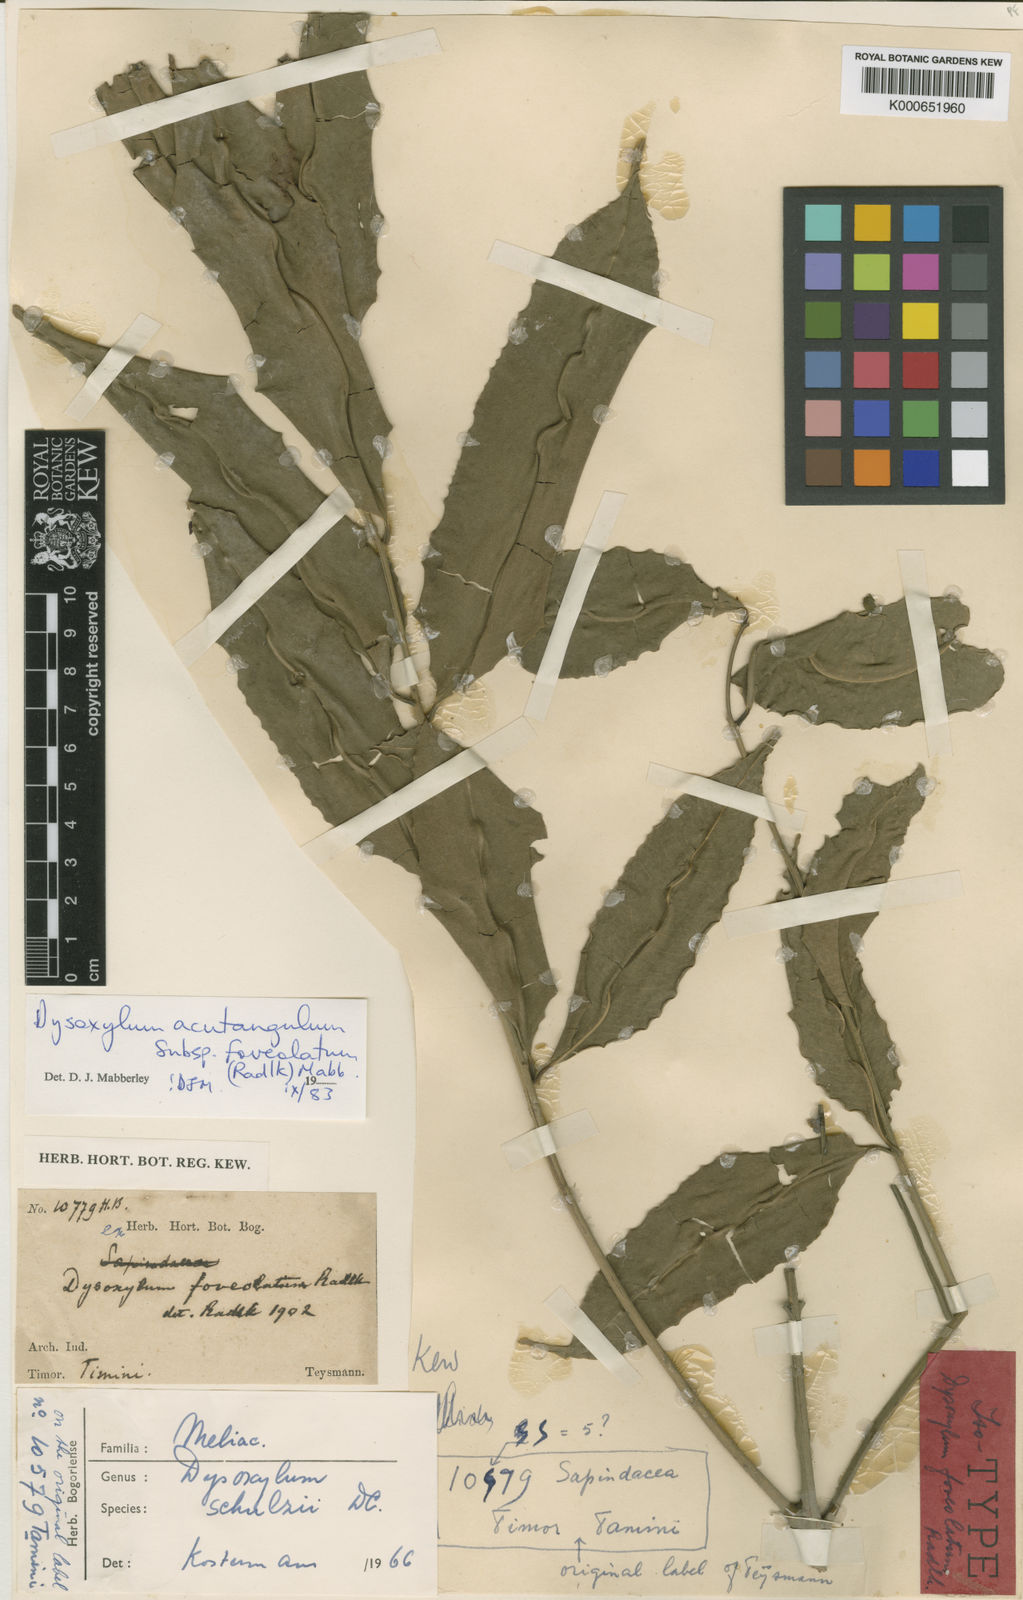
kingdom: Plantae
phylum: Tracheophyta
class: Magnoliopsida
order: Sapindales
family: Meliaceae
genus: Dysoxylum
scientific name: Dysoxylum acutangulum
